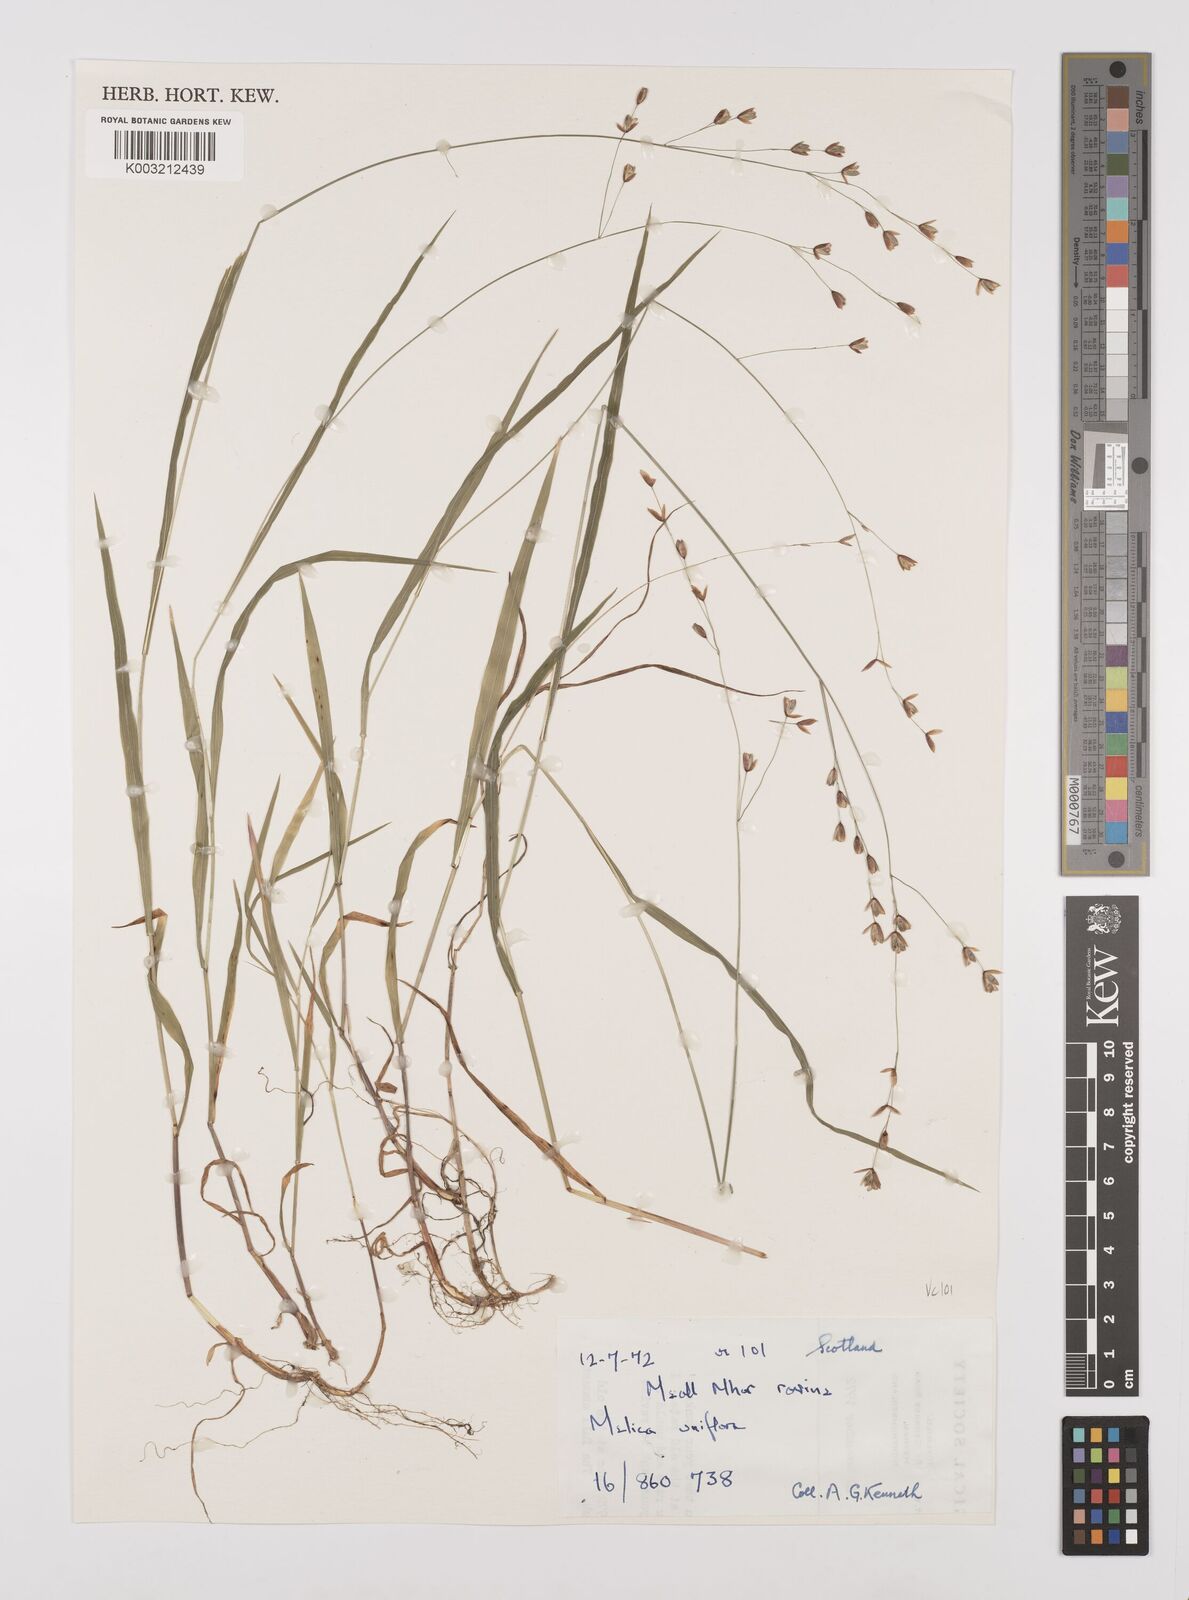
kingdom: Plantae
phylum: Tracheophyta
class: Liliopsida
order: Poales
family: Poaceae
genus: Melica
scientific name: Melica uniflora
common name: Wood melick
